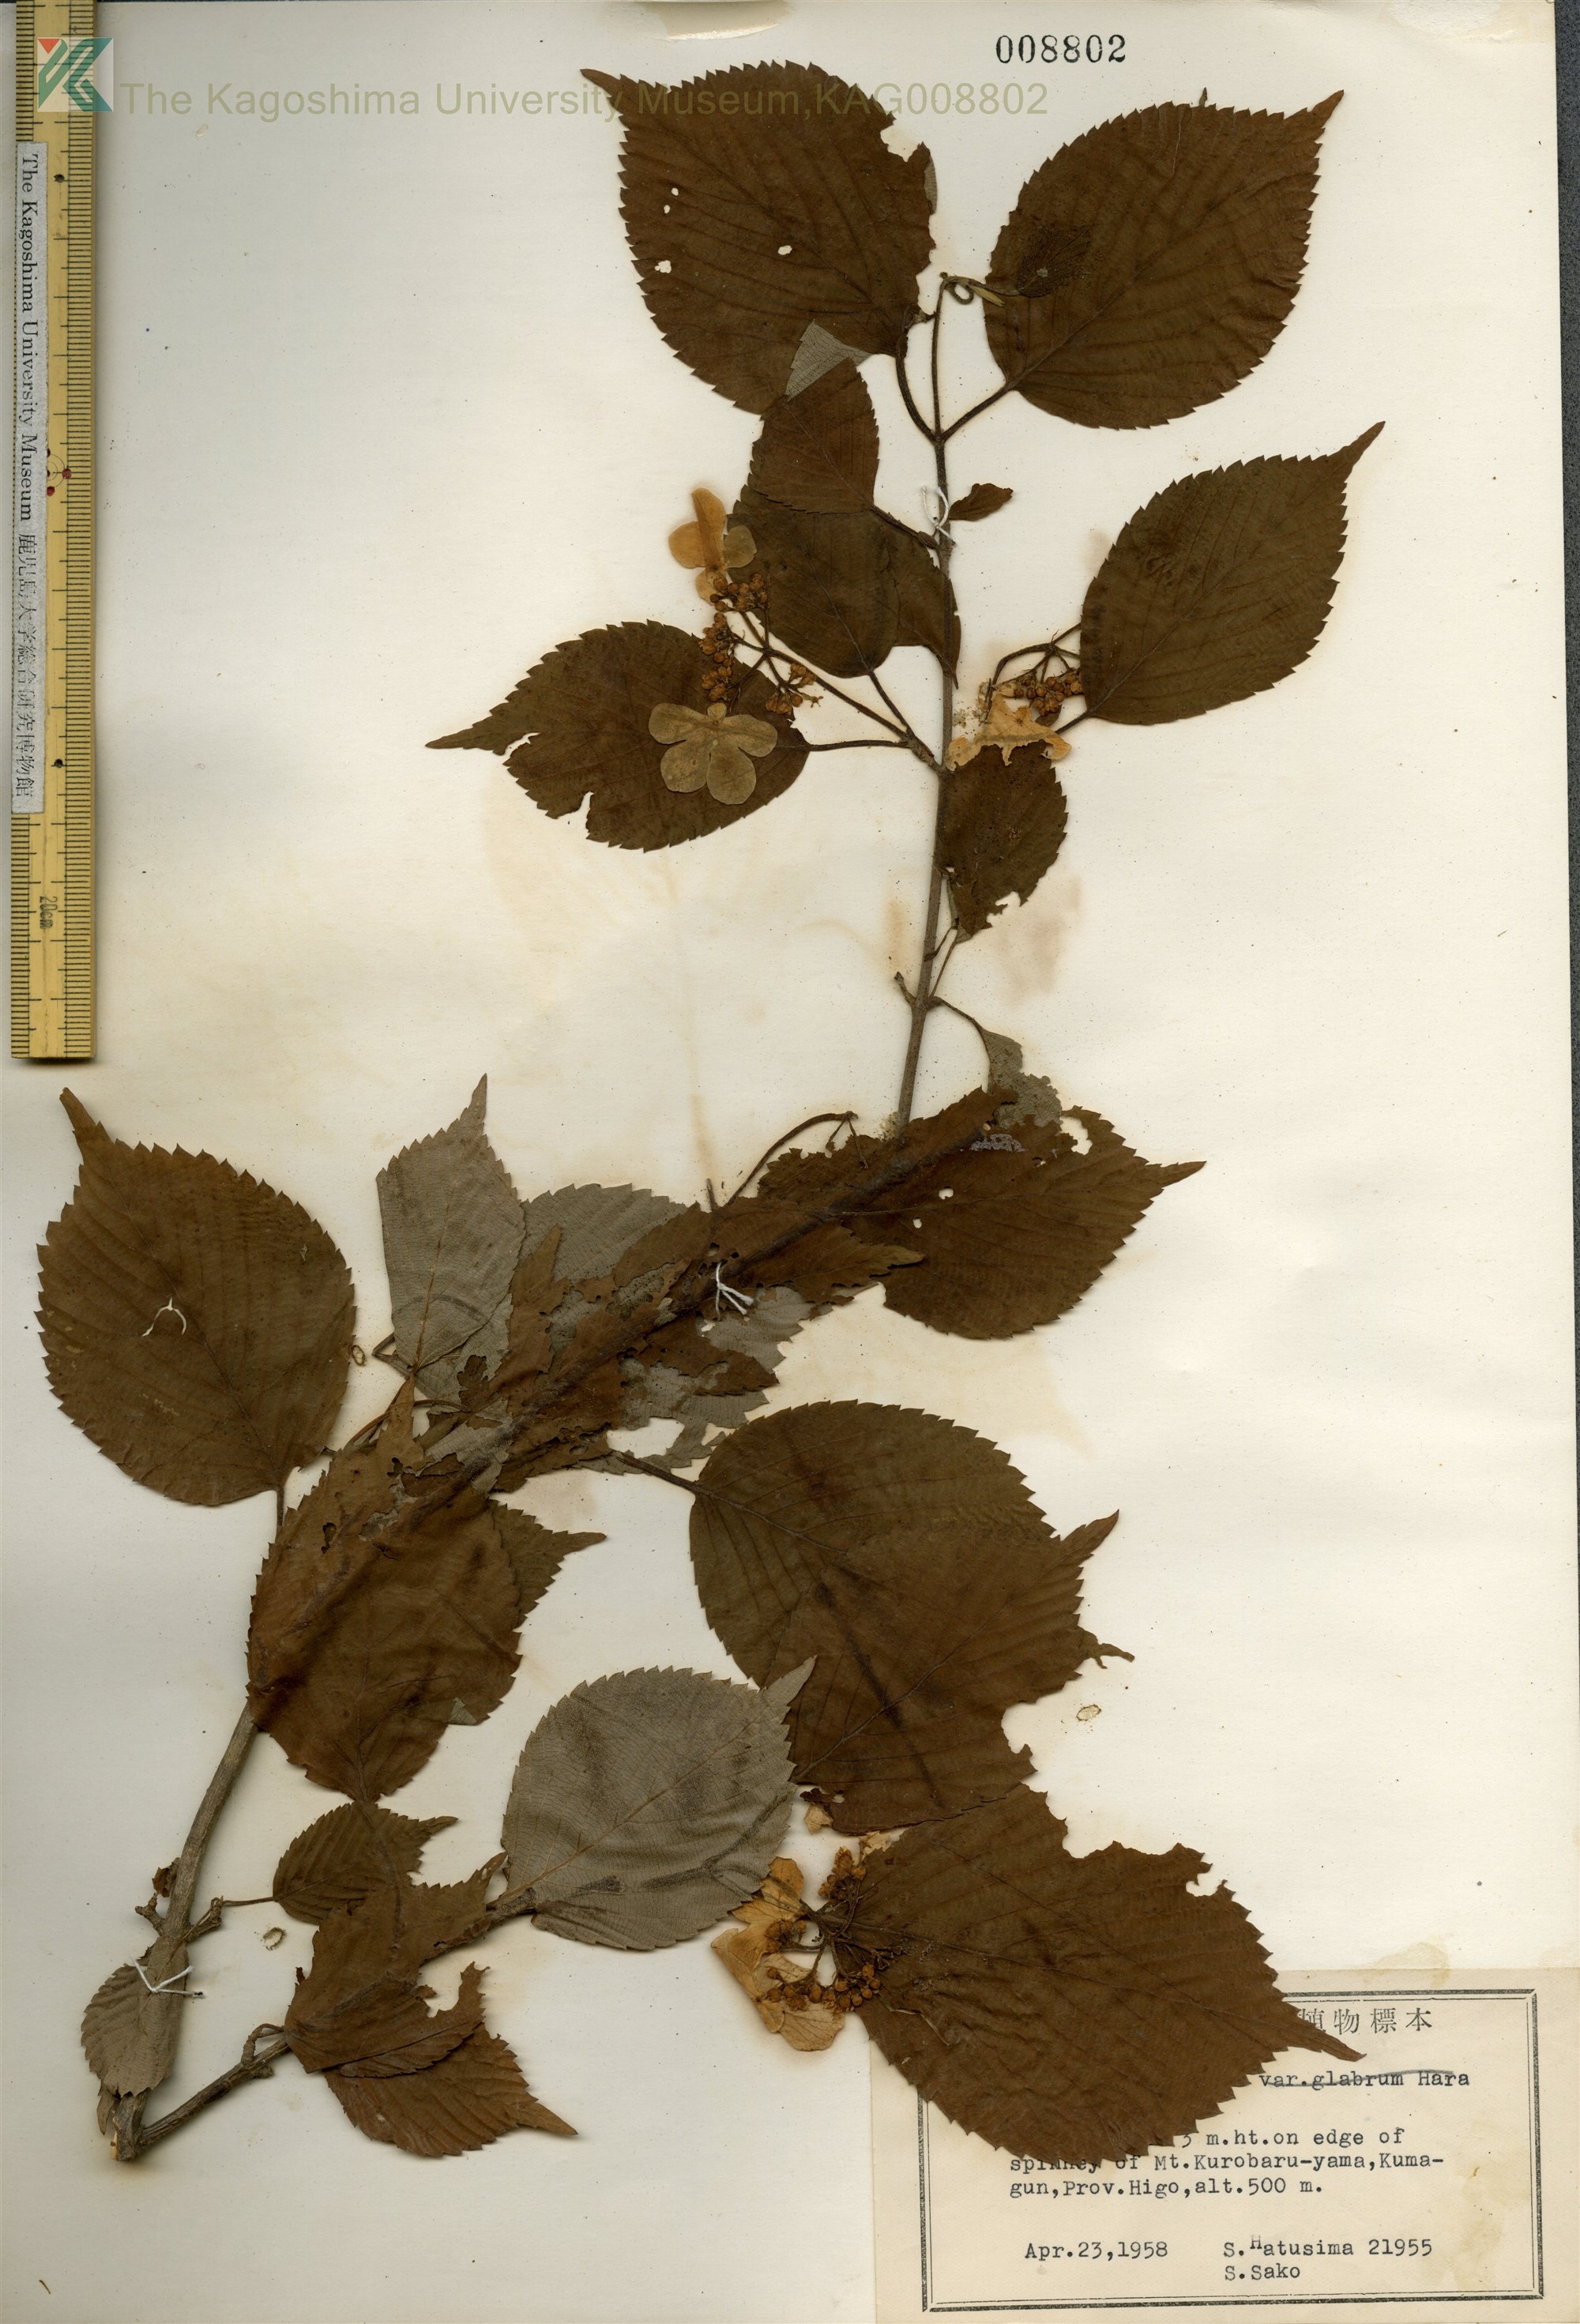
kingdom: Plantae
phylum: Tracheophyta
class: Magnoliopsida
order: Dipsacales
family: Viburnaceae
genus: Viburnum
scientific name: Viburnum plicatum
